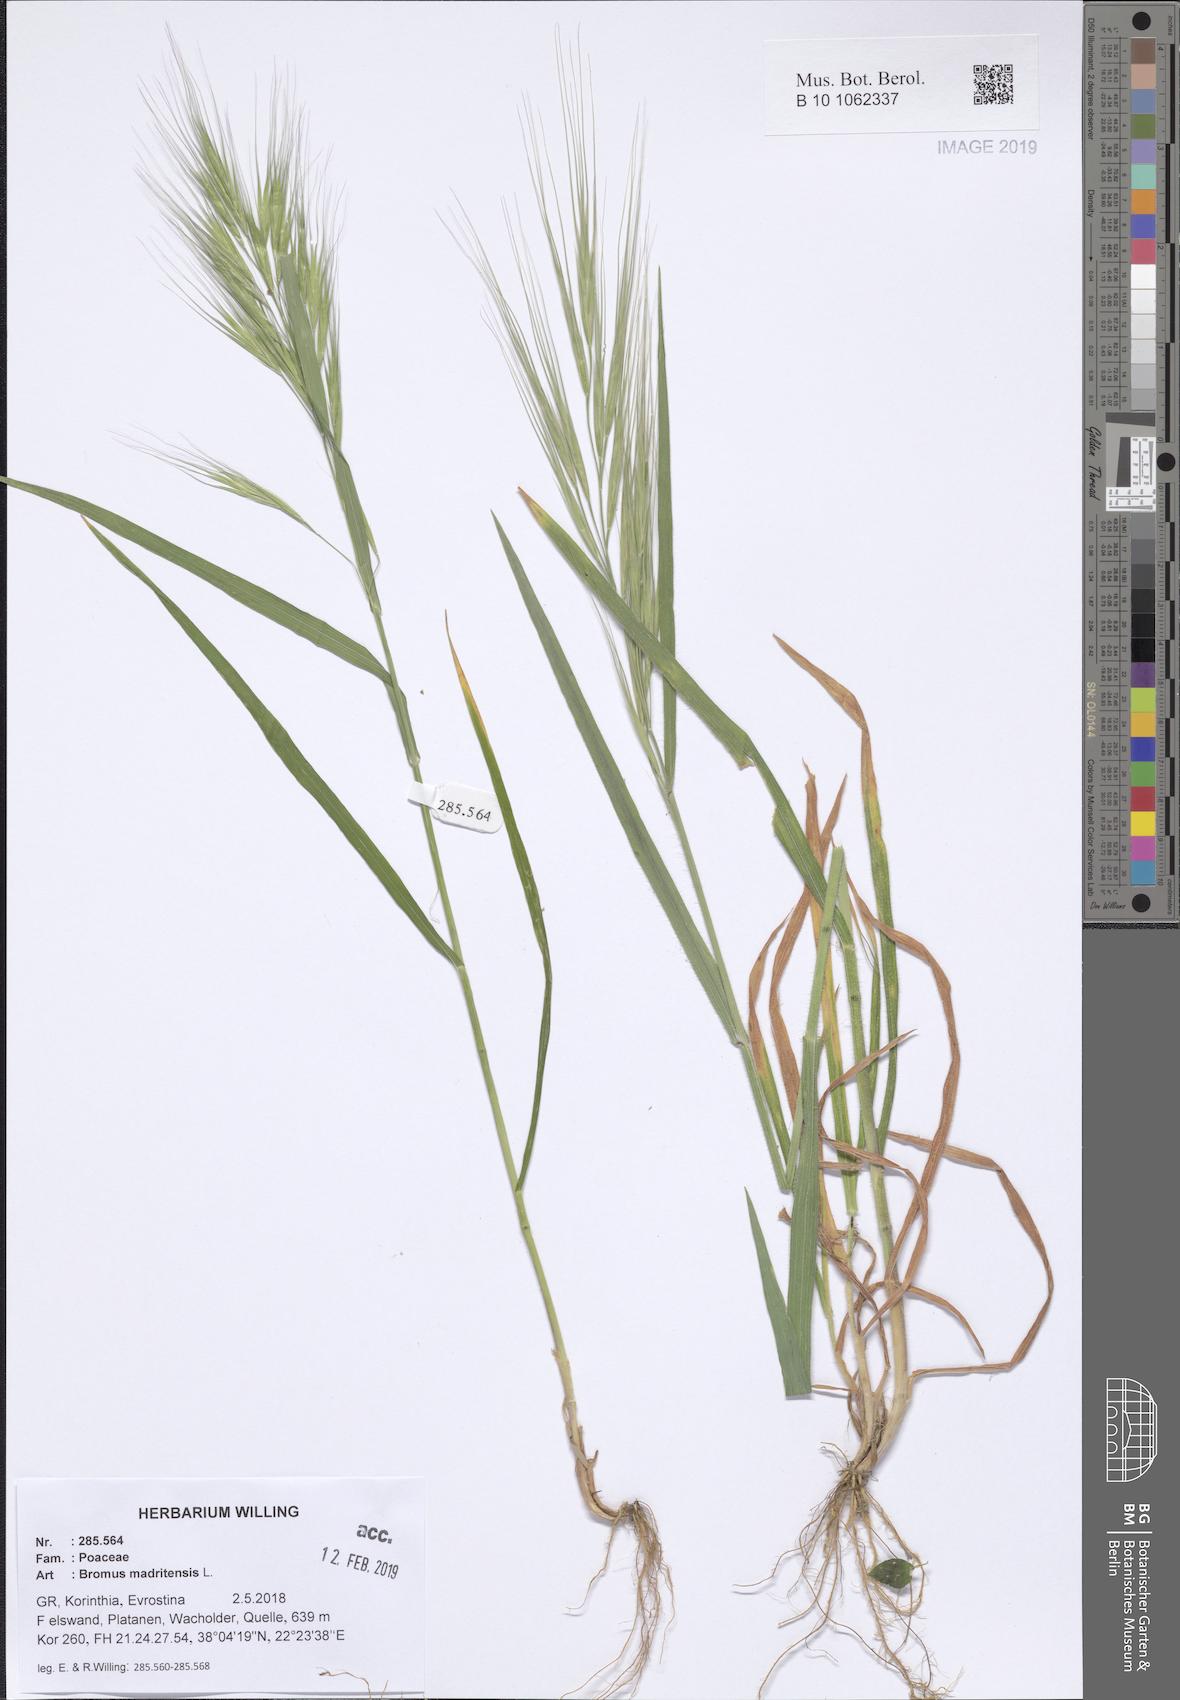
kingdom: Plantae
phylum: Tracheophyta
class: Liliopsida
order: Poales
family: Poaceae
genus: Bromus
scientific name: Bromus madritensis
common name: Compact brome
